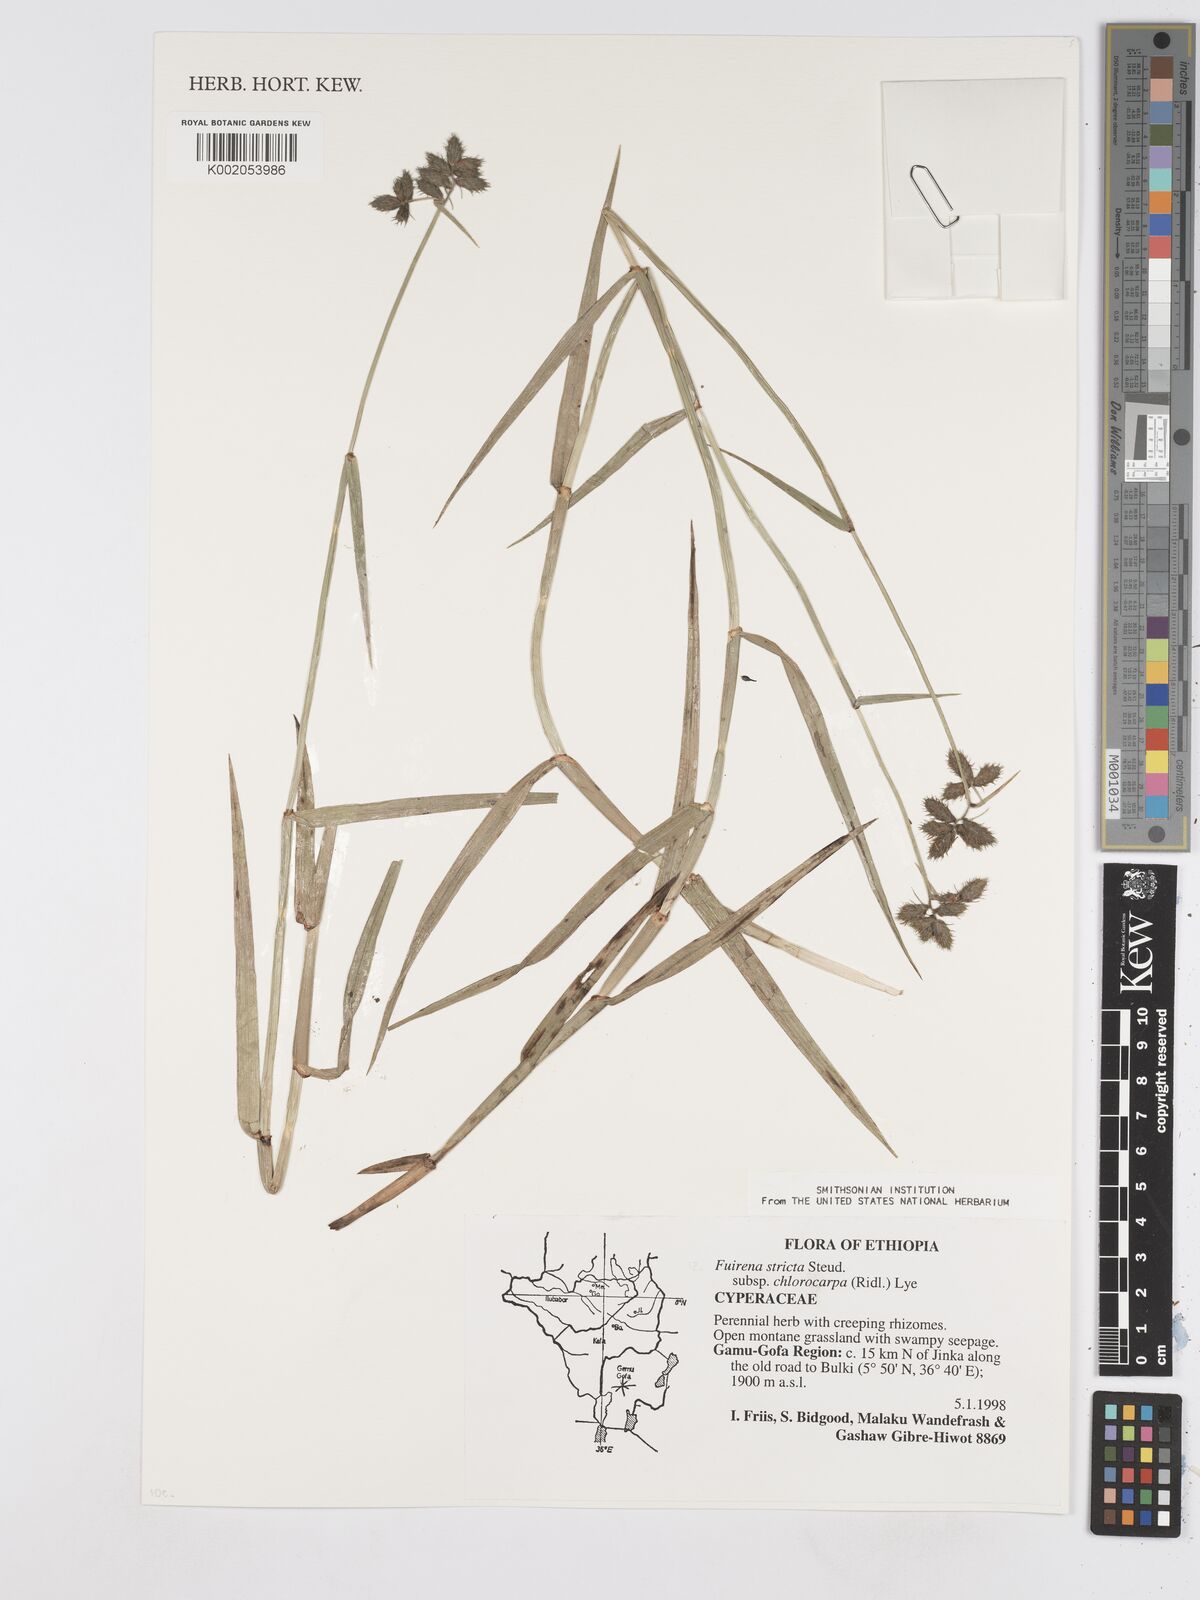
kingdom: Plantae
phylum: Tracheophyta
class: Liliopsida
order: Poales
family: Cyperaceae
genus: Fuirena
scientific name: Fuirena stricta
